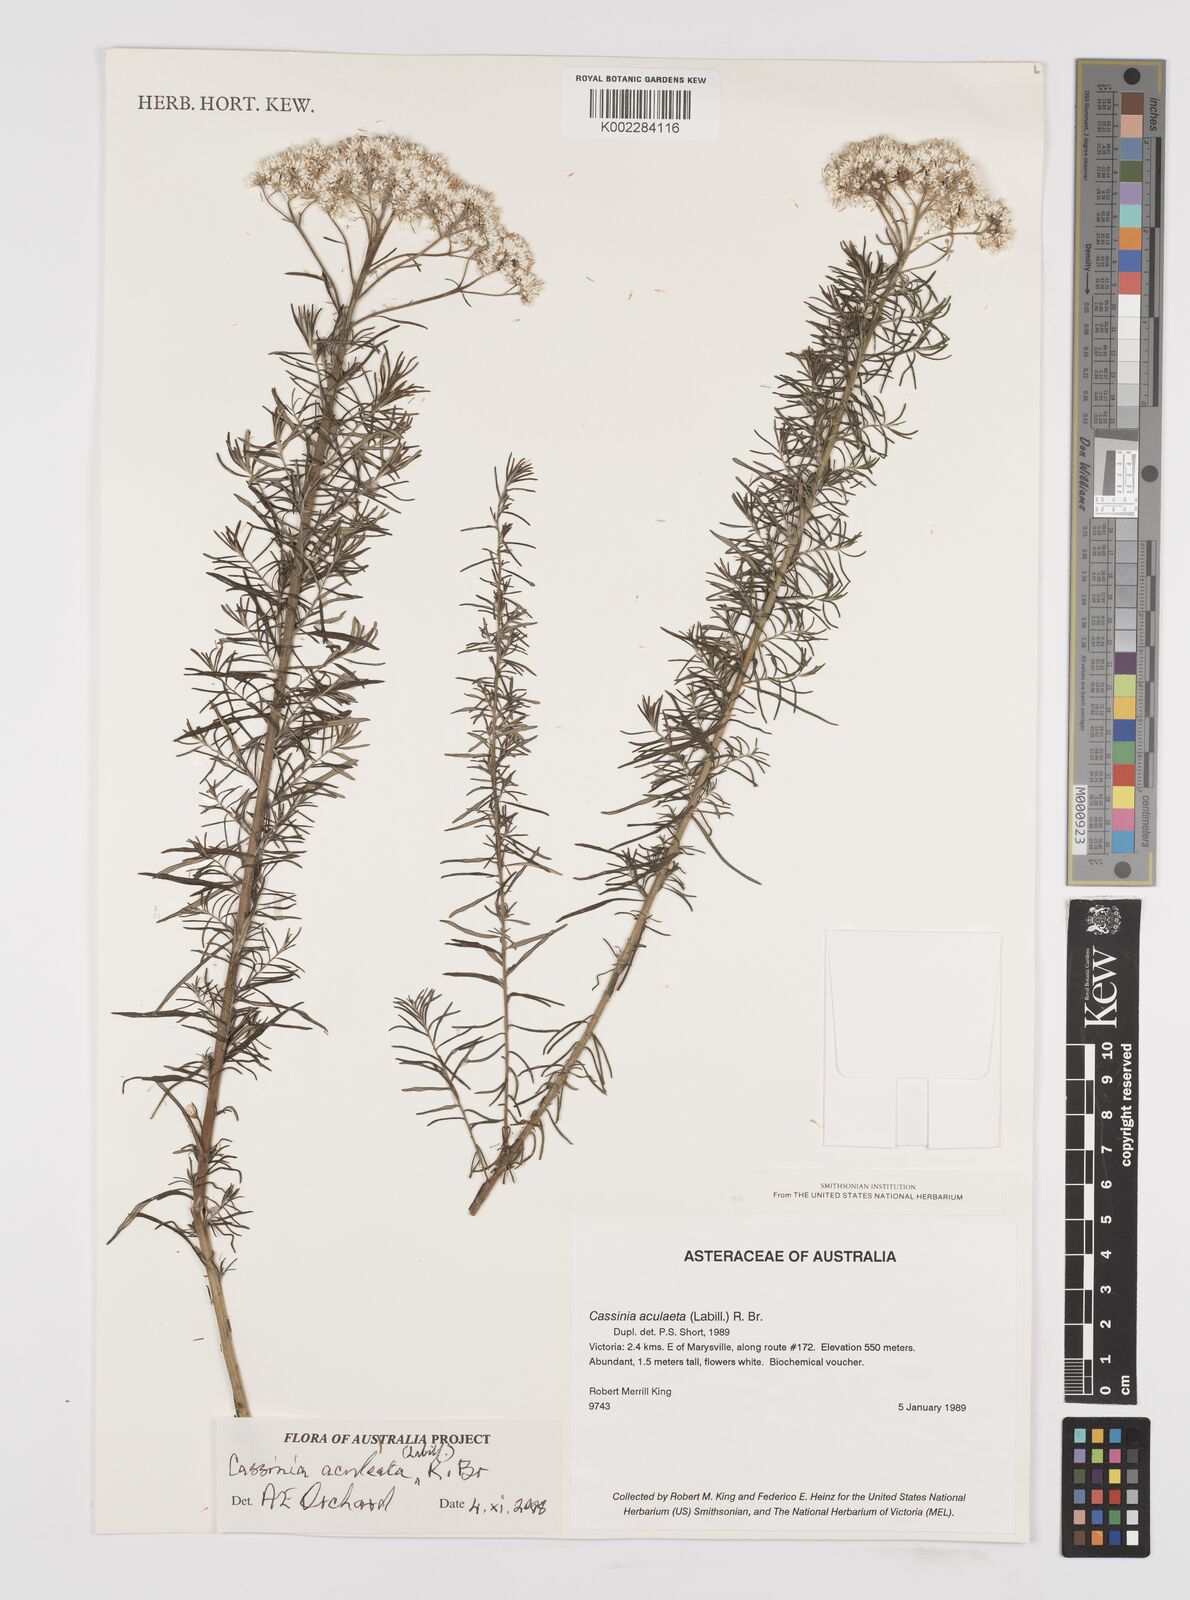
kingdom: Plantae
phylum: Tracheophyta
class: Magnoliopsida
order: Asterales
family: Asteraceae
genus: Cassinia
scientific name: Cassinia aculeata
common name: Australian tauhinu
